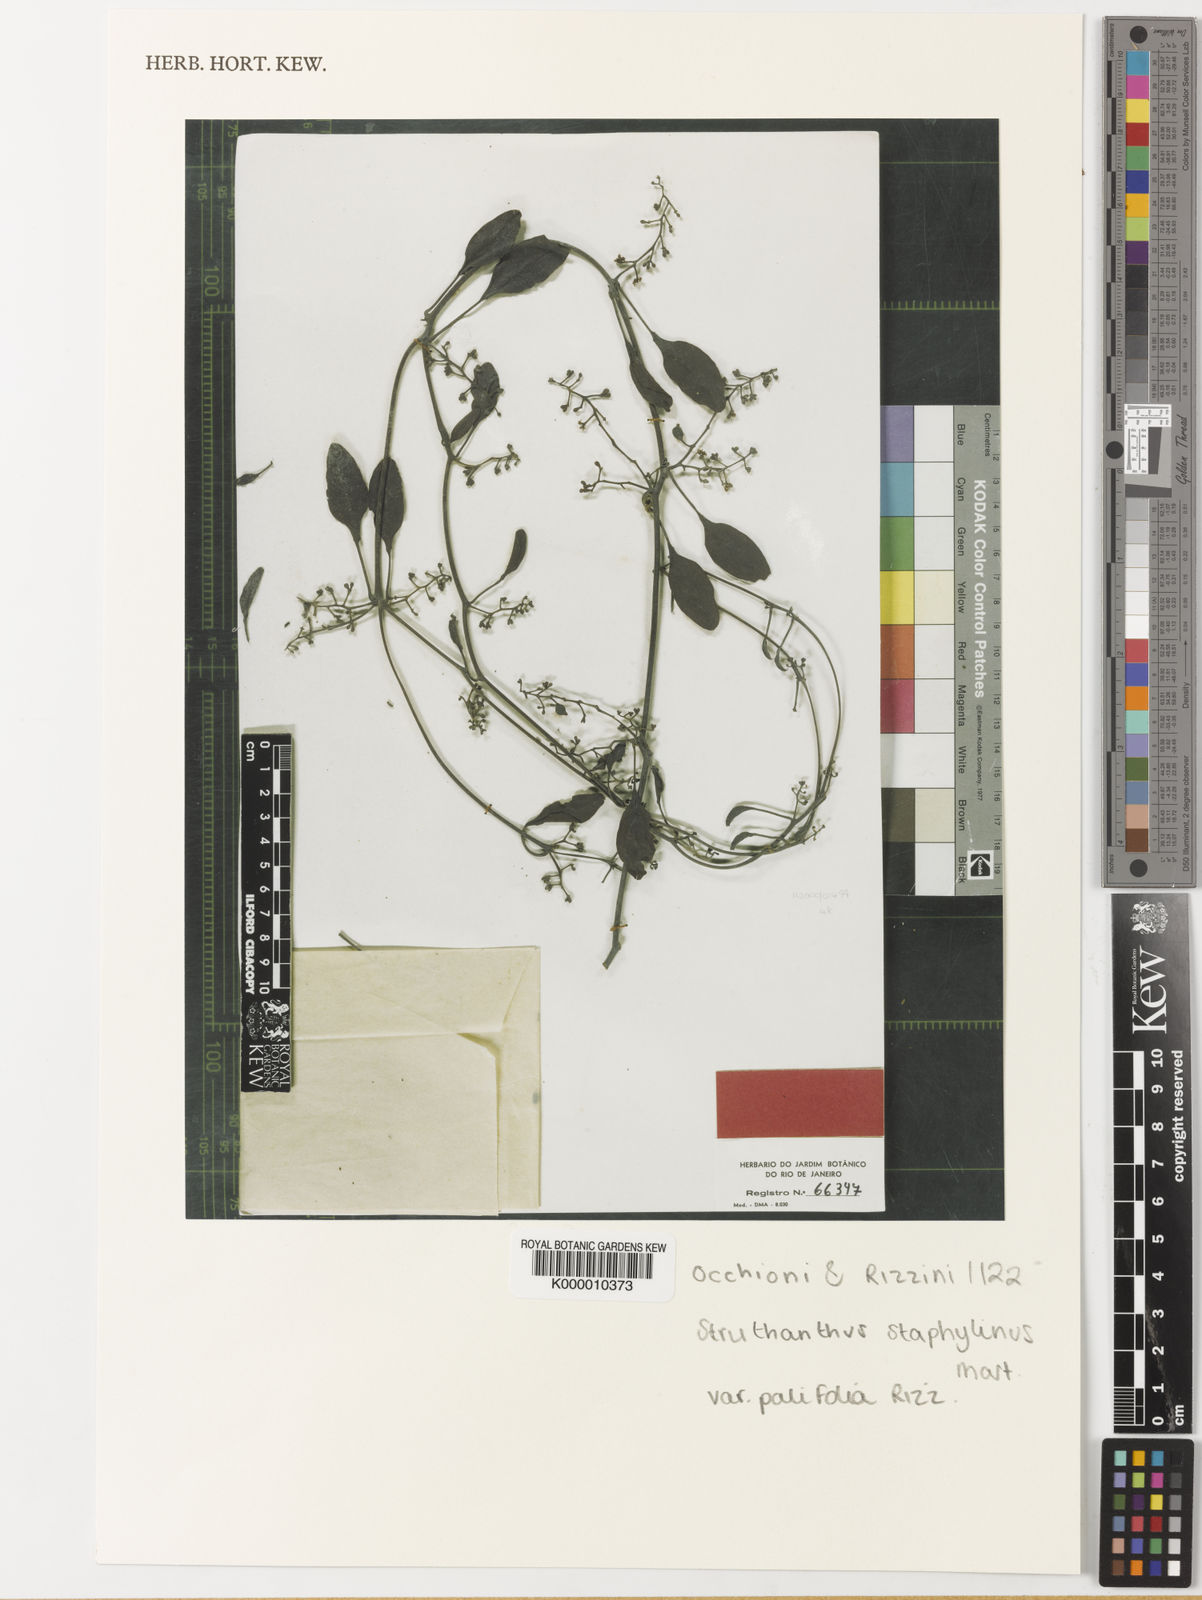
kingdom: Plantae
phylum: Tracheophyta
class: Magnoliopsida
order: Santalales
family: Loranthaceae
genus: Struthanthus
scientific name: Struthanthus staphylinus
